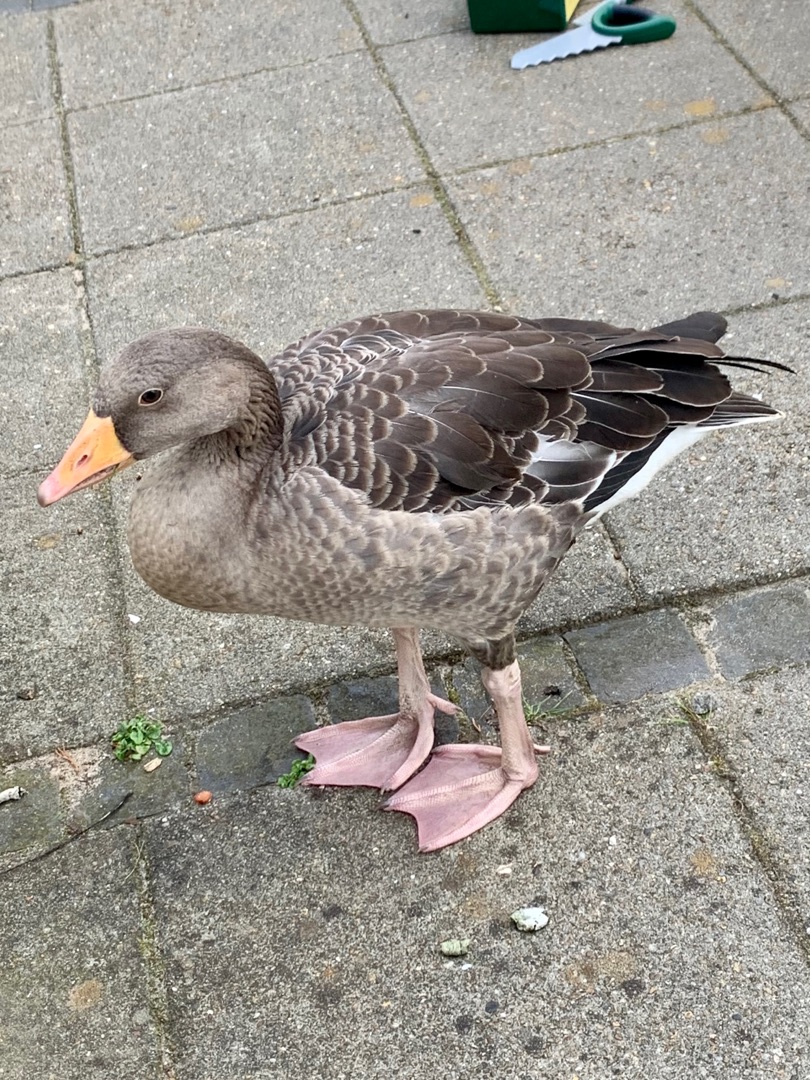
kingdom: Animalia
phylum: Chordata
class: Aves
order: Anseriformes
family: Anatidae
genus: Anser
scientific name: Anser anser
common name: Grågås
